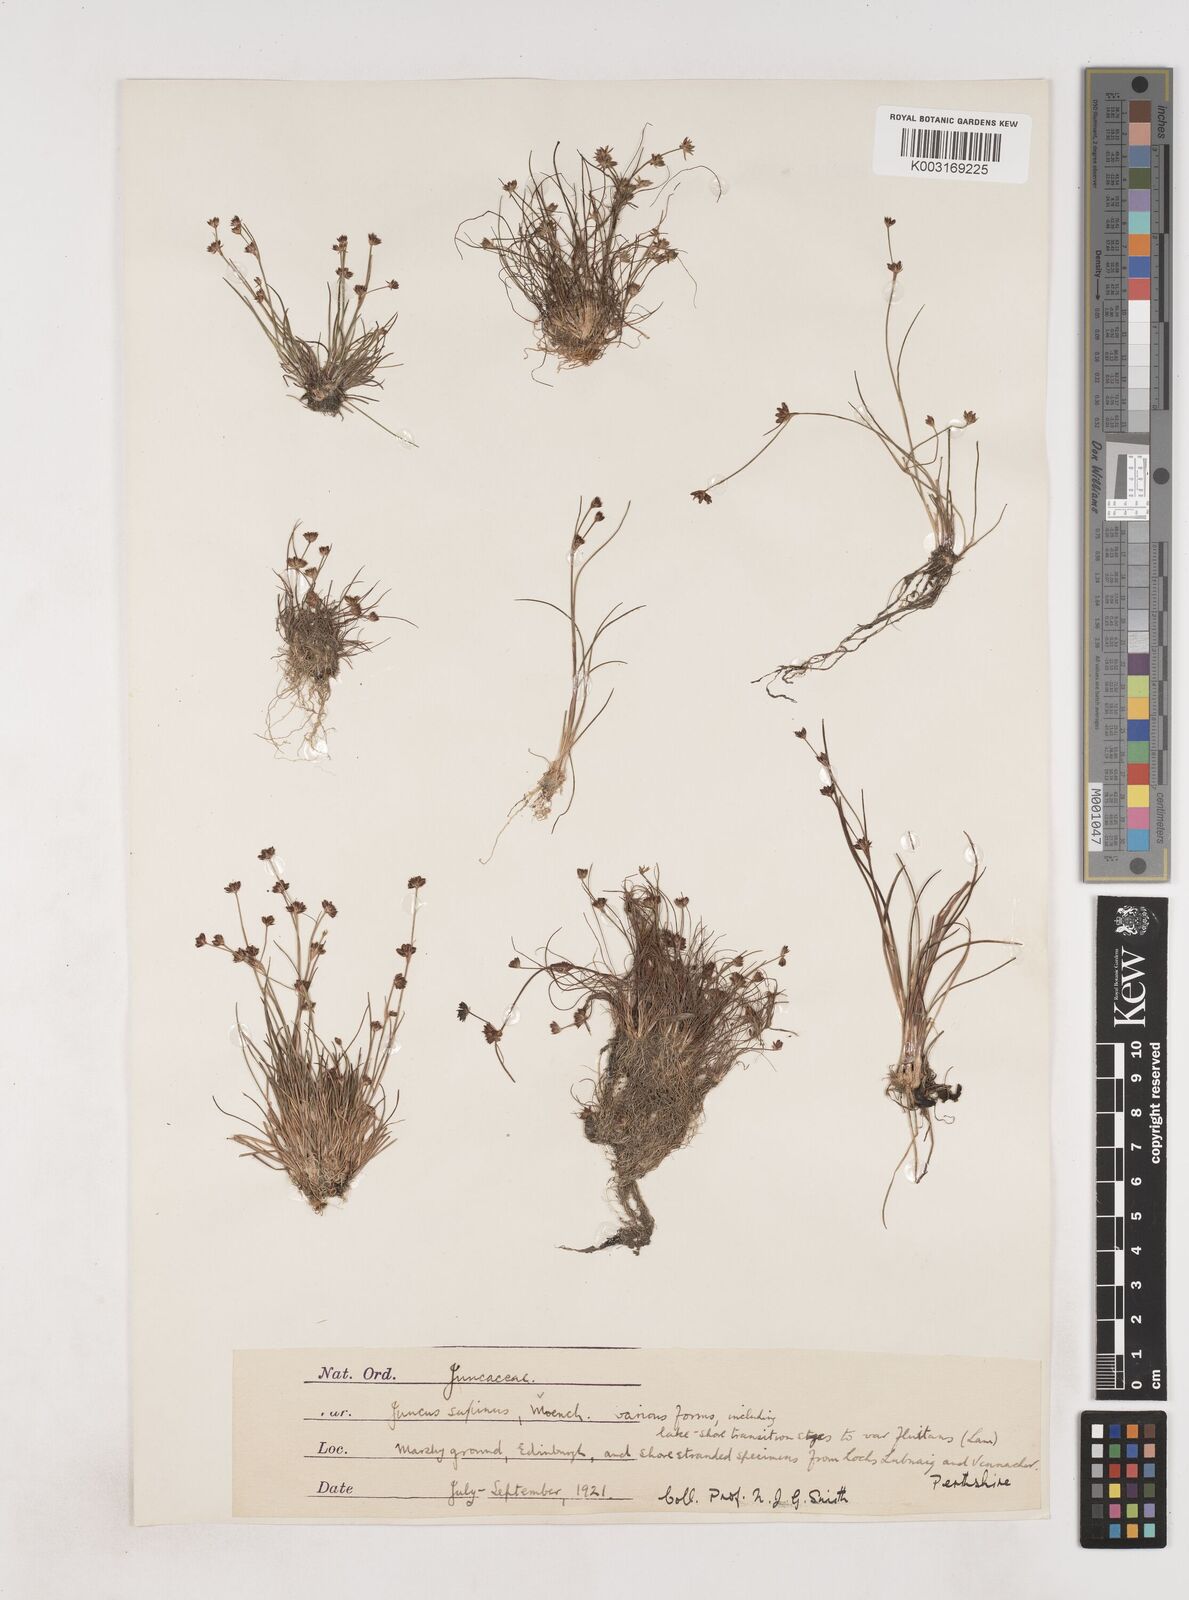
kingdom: Plantae
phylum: Tracheophyta
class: Liliopsida
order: Poales
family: Juncaceae
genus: Juncus
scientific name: Juncus bulbosus
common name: Bulbous rush
